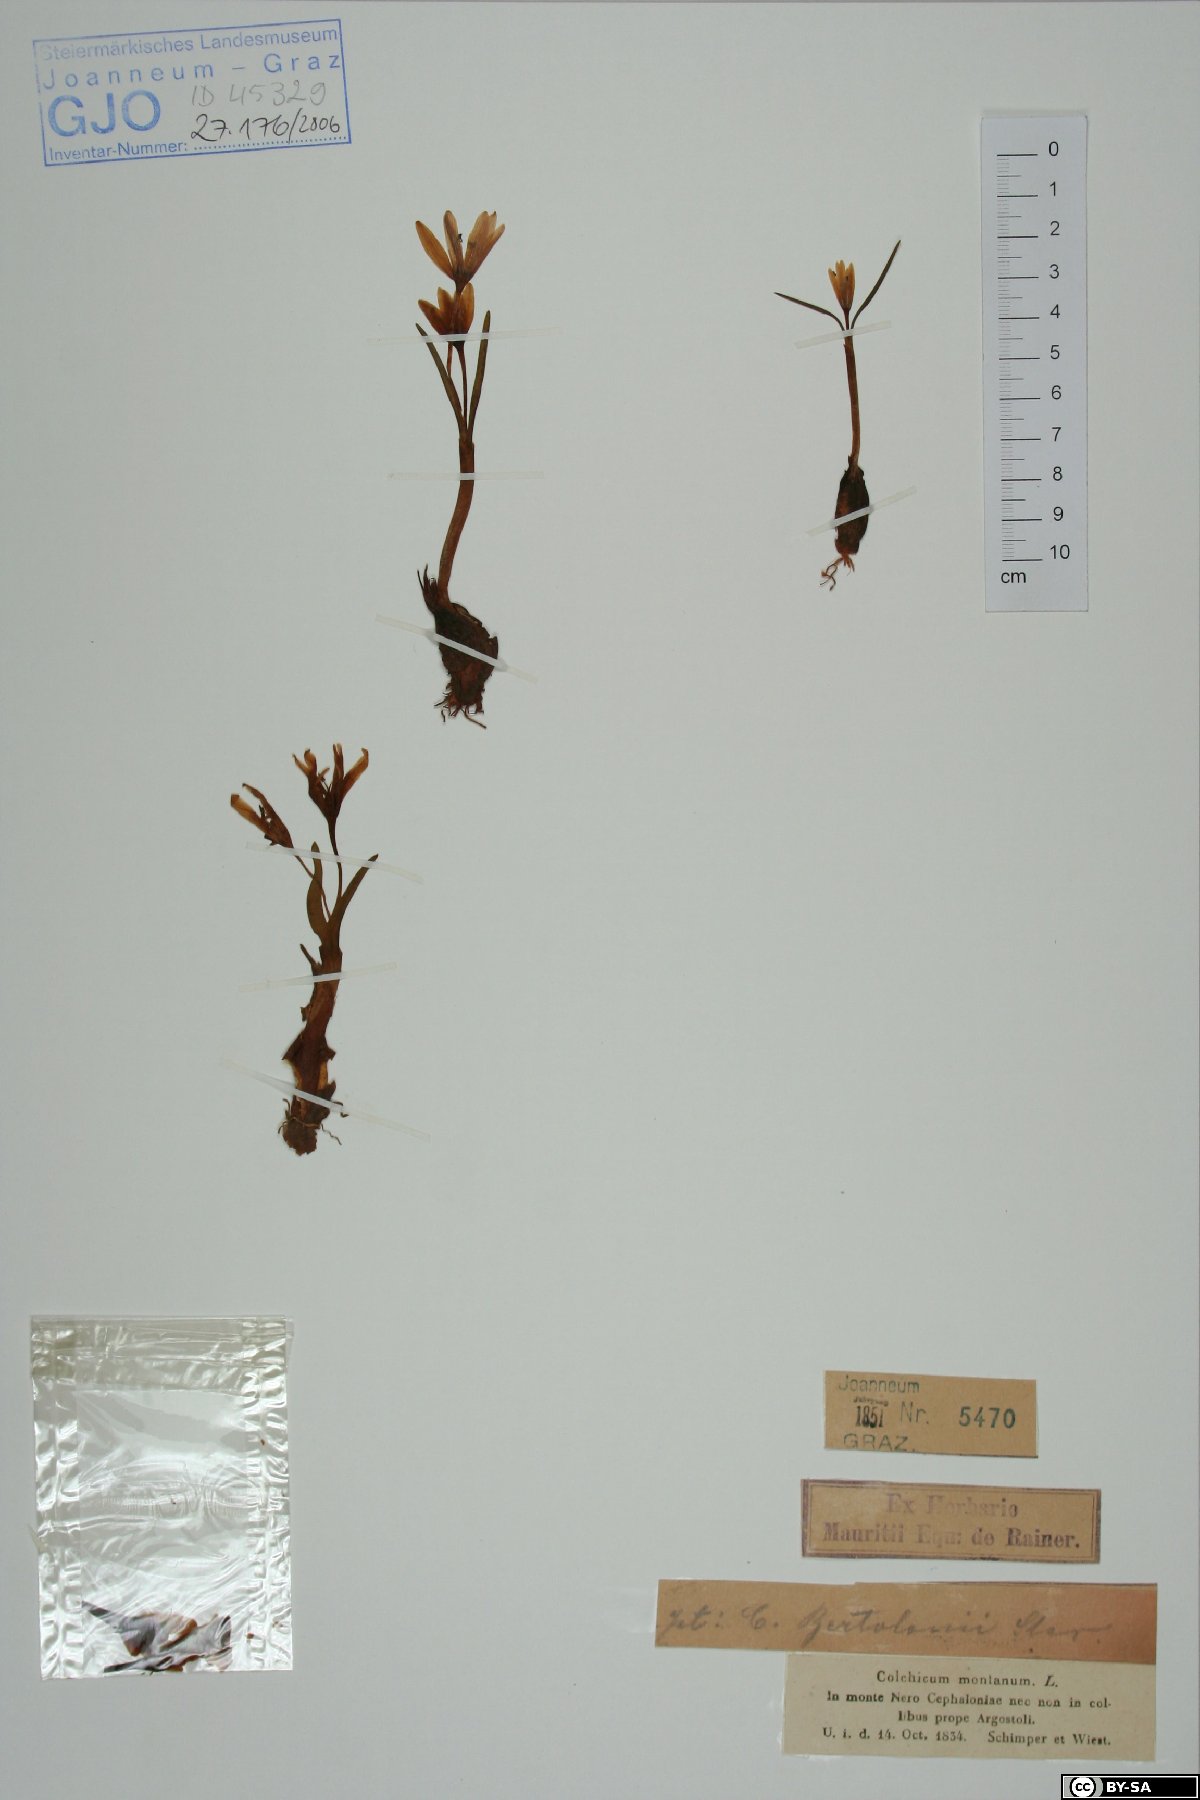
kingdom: Plantae
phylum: Tracheophyta
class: Liliopsida
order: Liliales
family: Colchicaceae
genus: Colchicum
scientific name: Colchicum montanum
